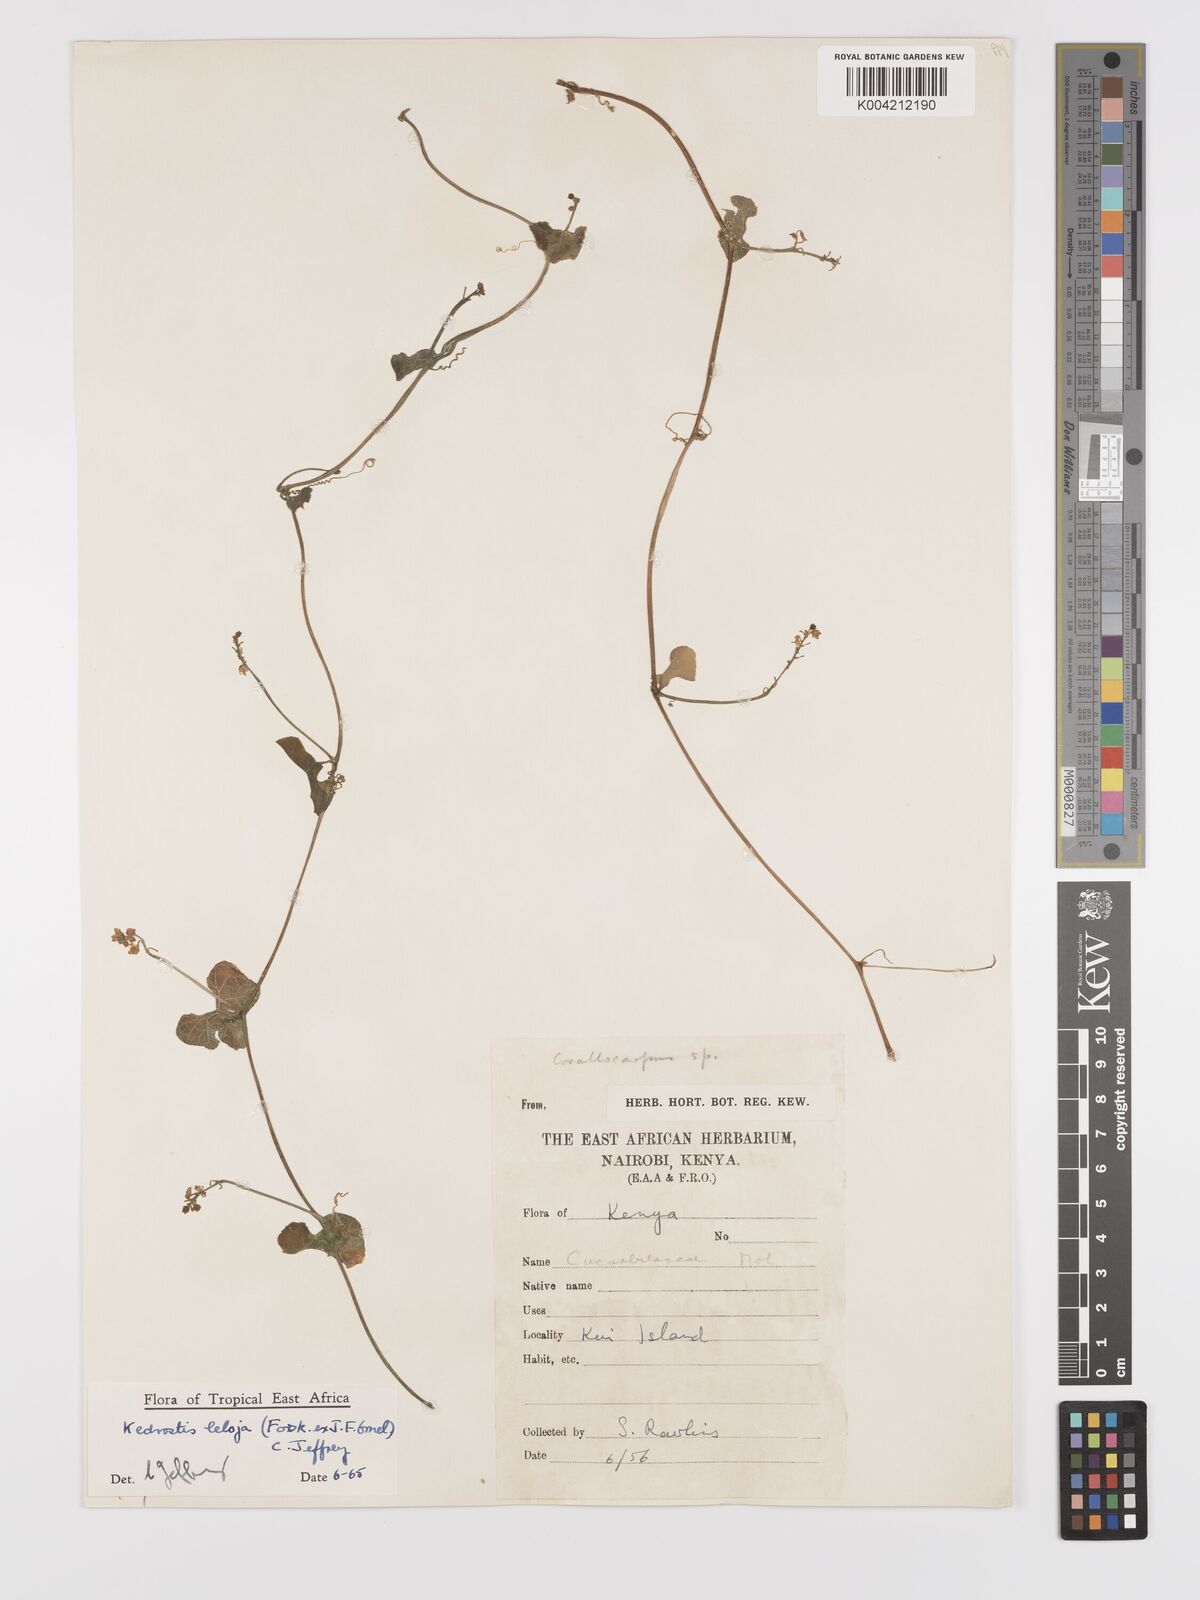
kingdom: Plantae
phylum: Tracheophyta
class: Magnoliopsida
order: Cucurbitales
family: Cucurbitaceae
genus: Kedrostis
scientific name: Kedrostis abdallae
